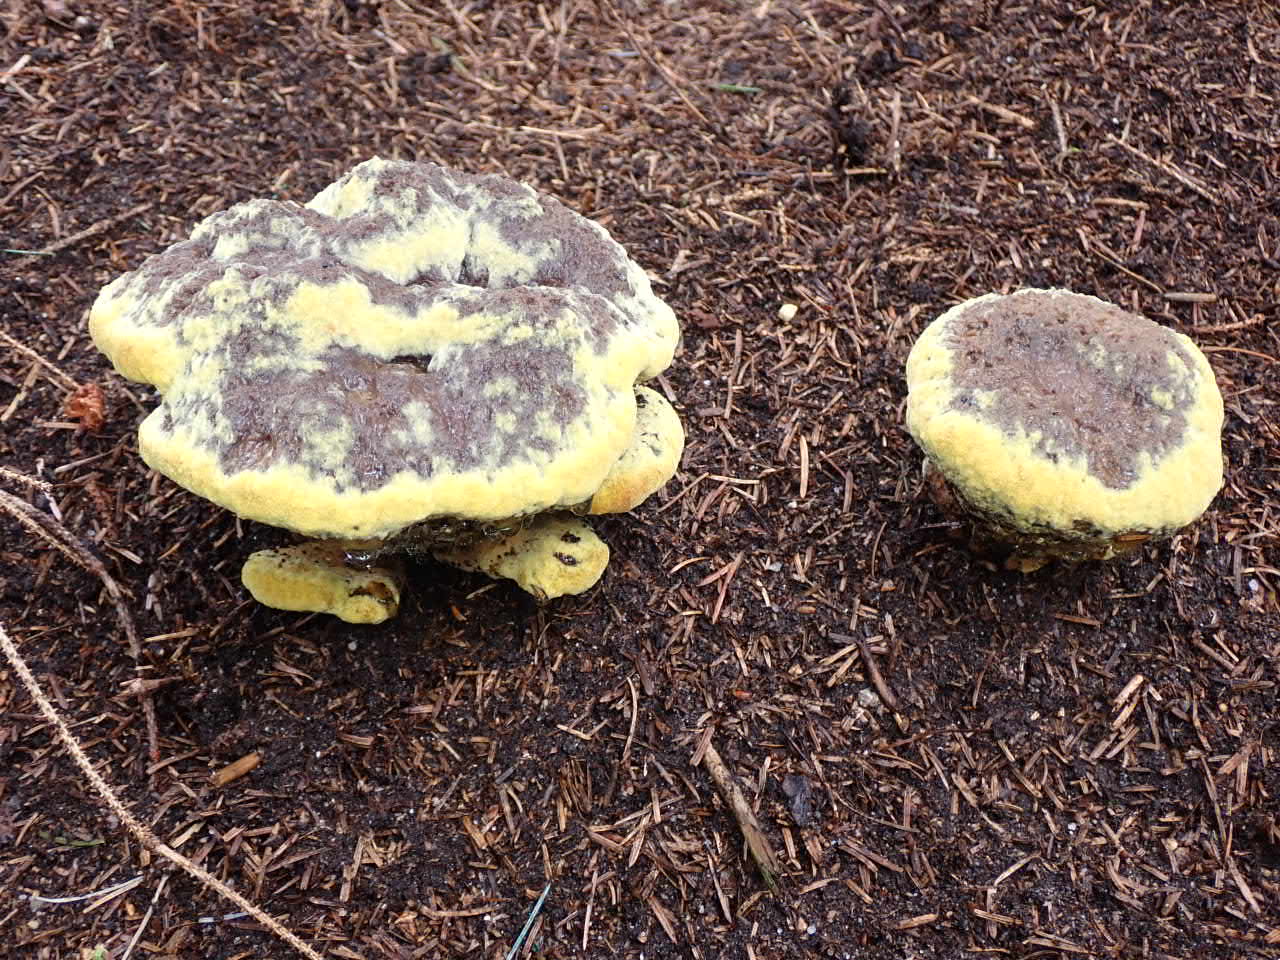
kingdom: Fungi
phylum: Basidiomycota
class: Agaricomycetes
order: Polyporales
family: Laetiporaceae
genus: Phaeolus
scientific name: Phaeolus schweinitzii
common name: brunporesvamp
